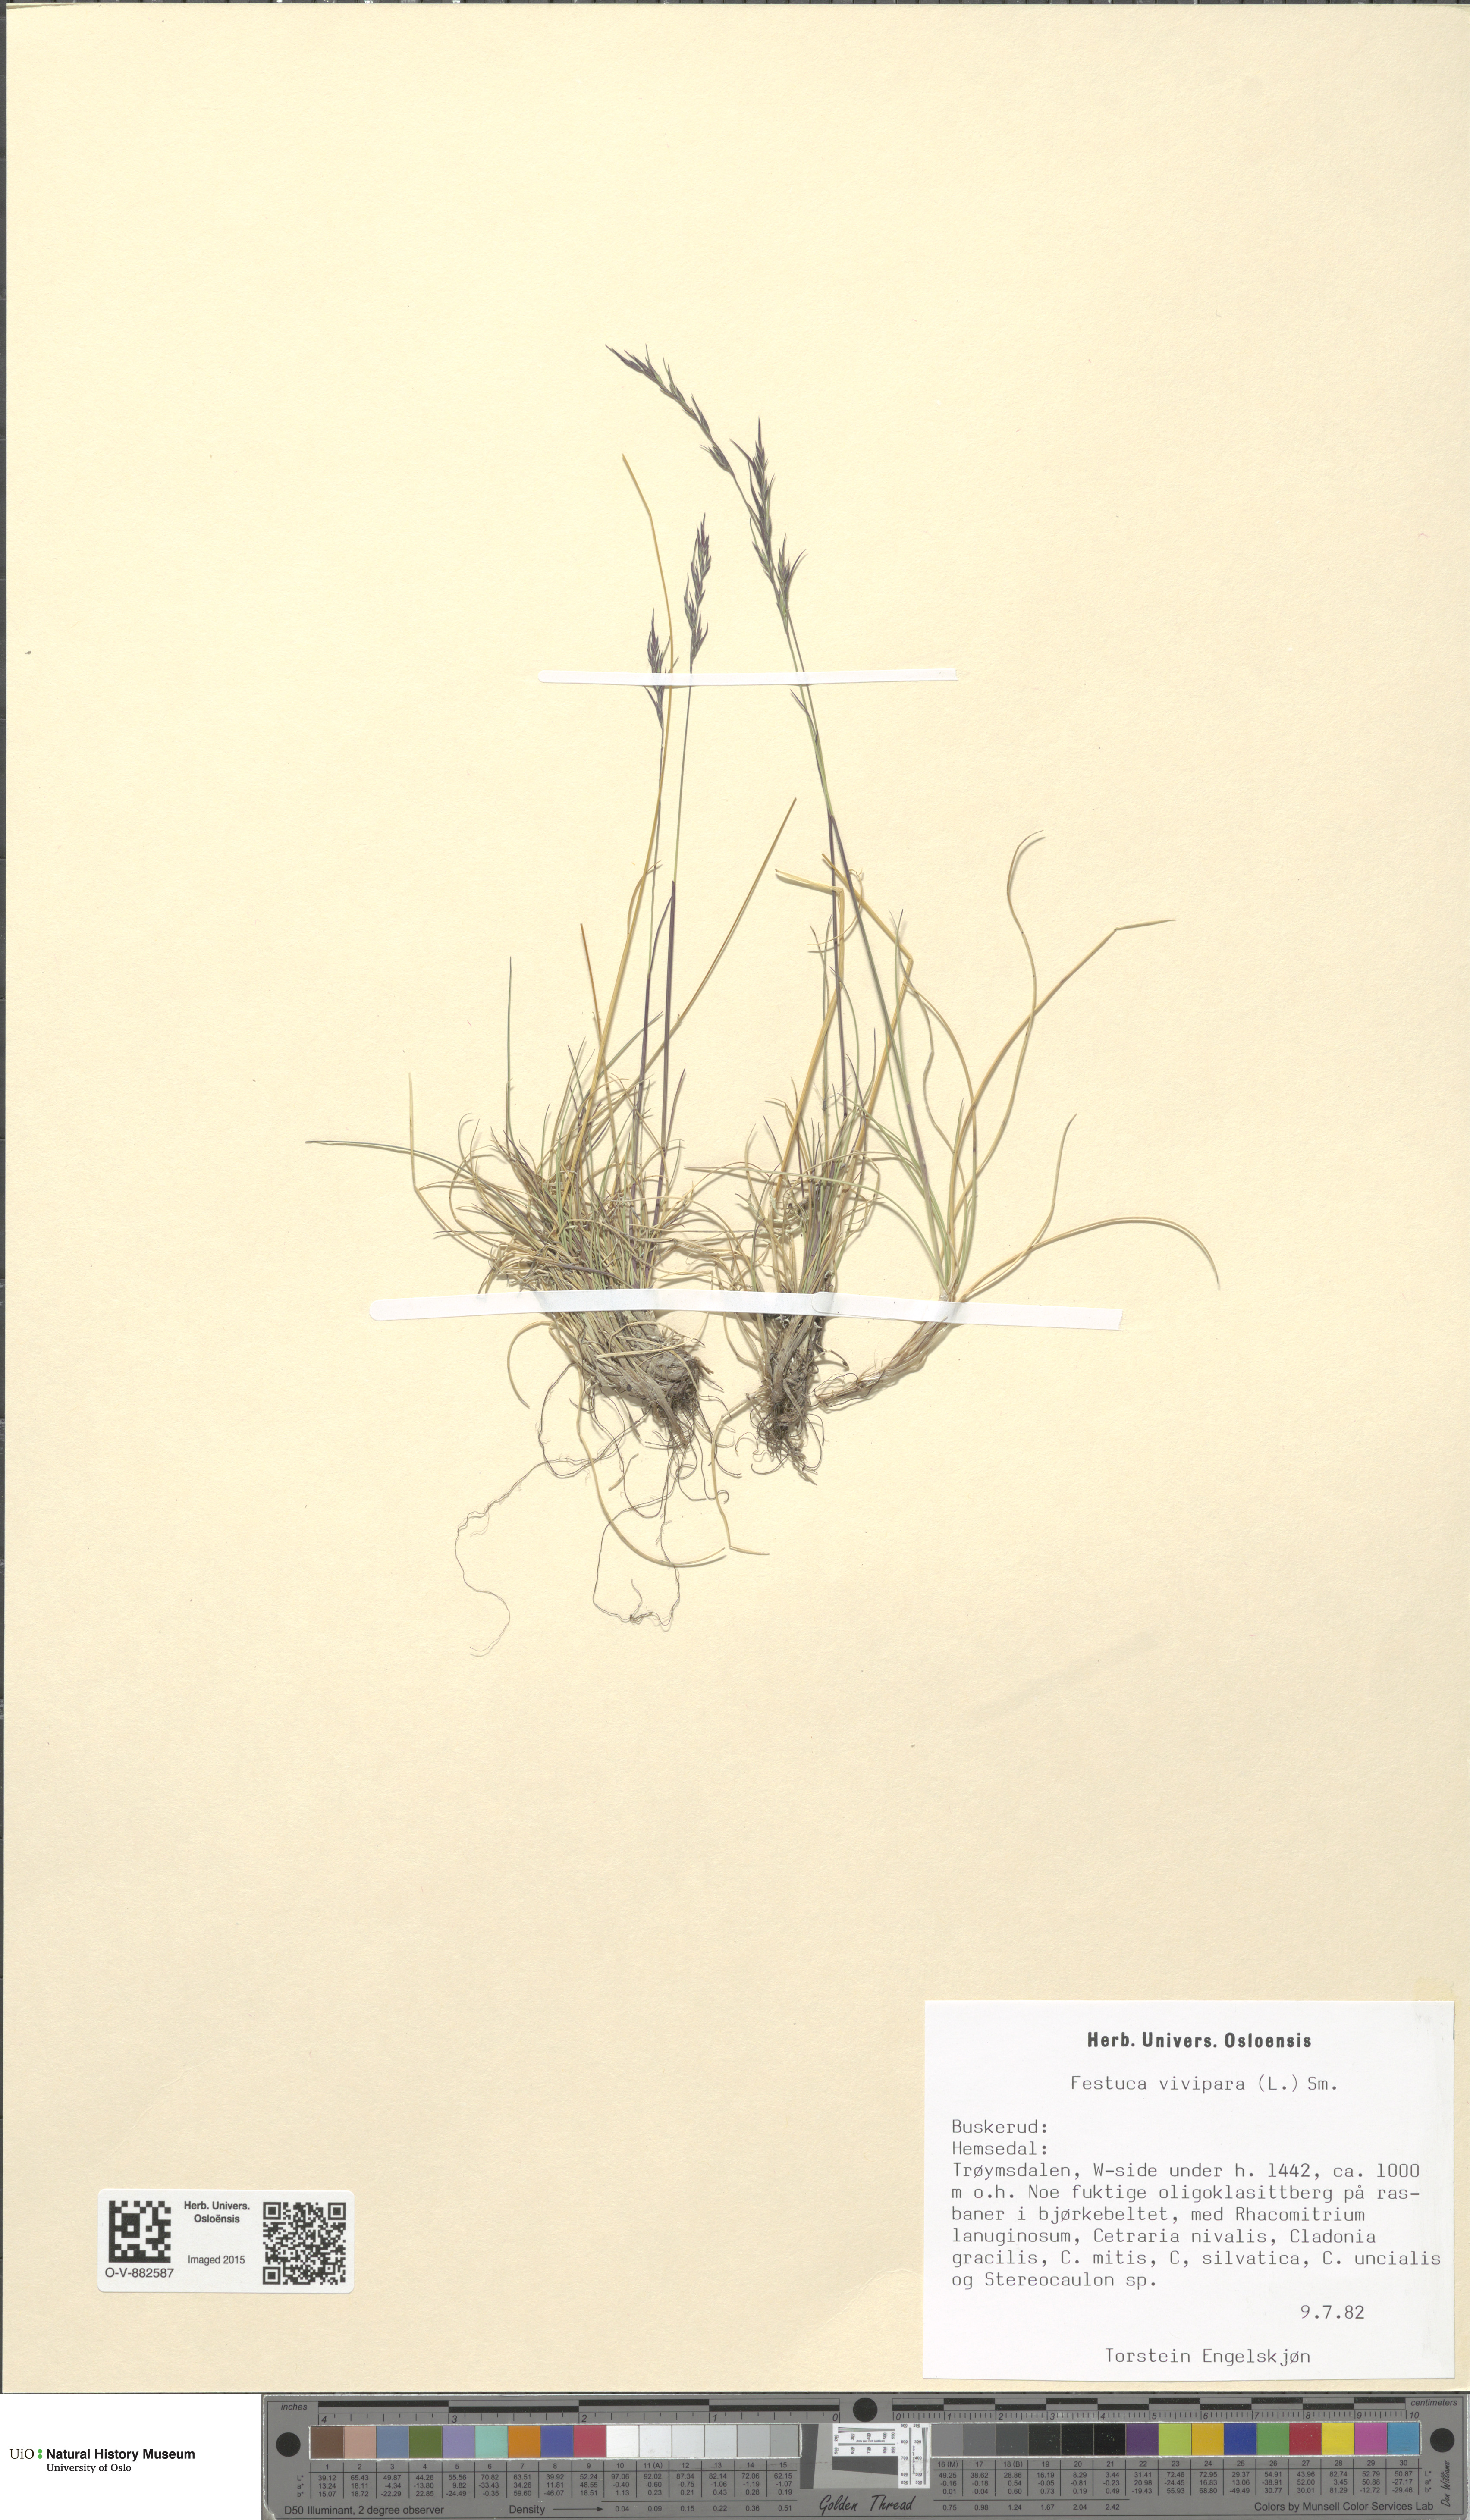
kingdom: Plantae
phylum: Tracheophyta
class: Liliopsida
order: Poales
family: Poaceae
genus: Festuca
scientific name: Festuca vivipara
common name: Viviparous sheep's-fescue
